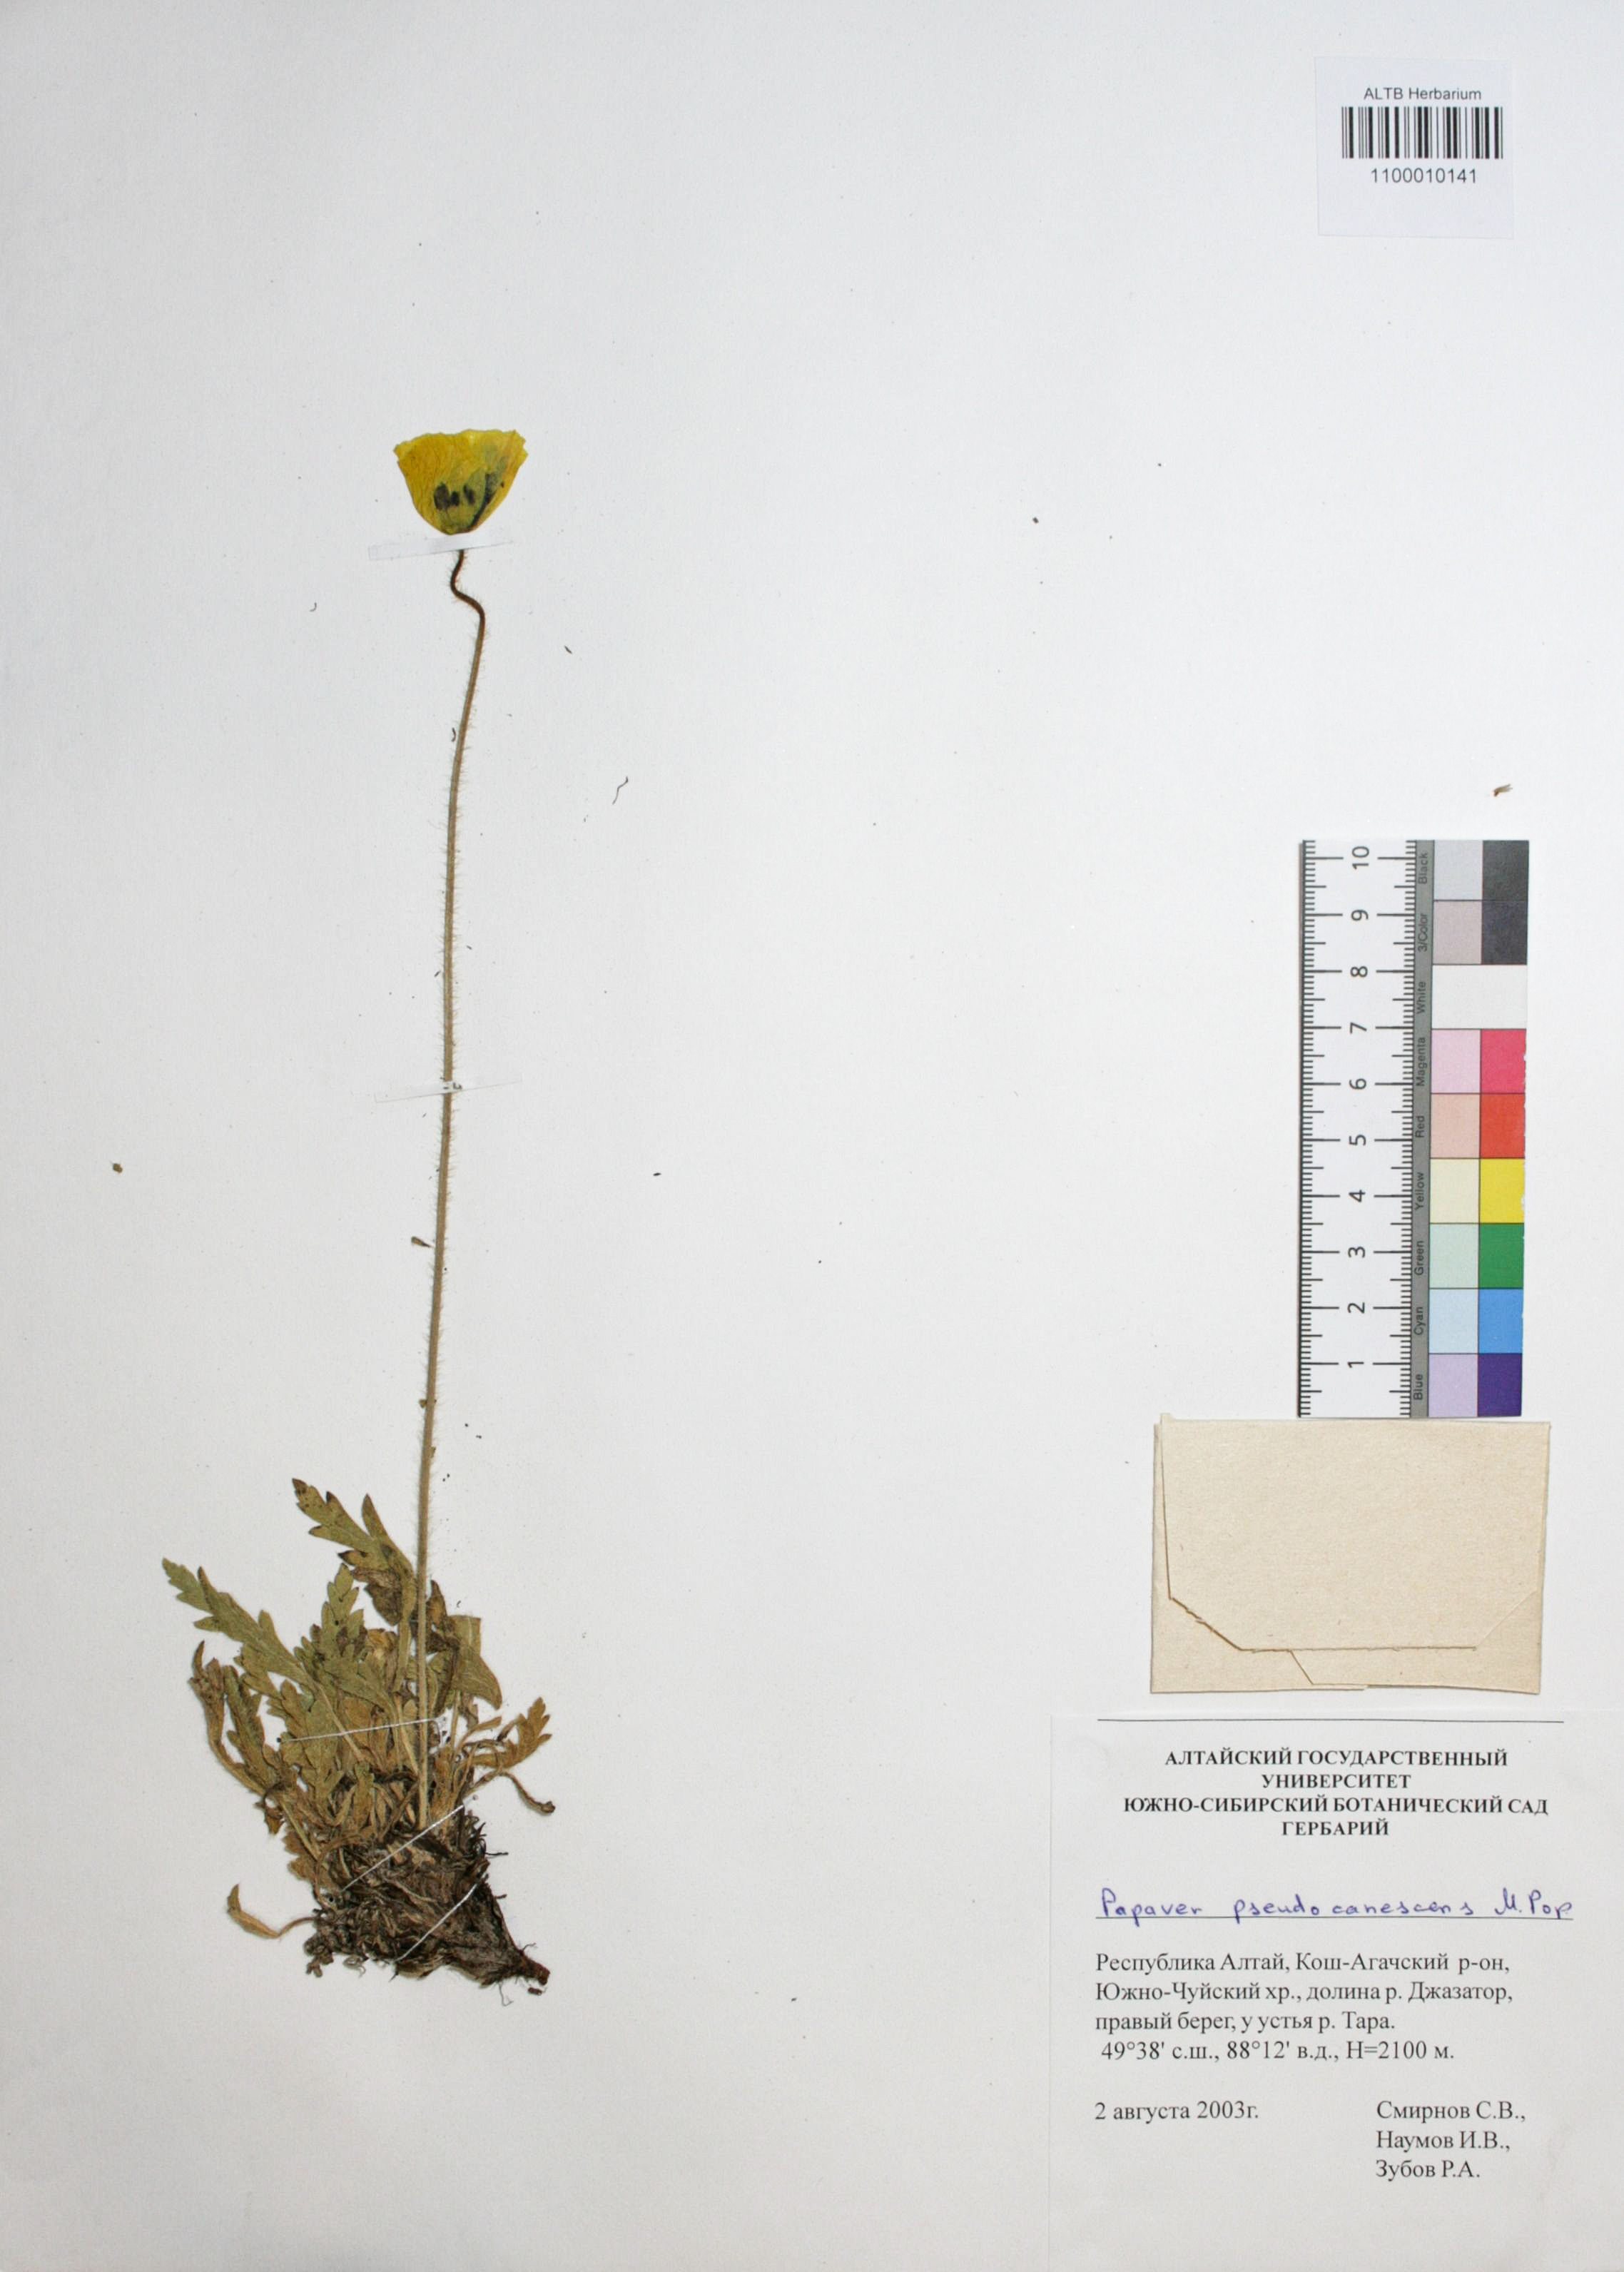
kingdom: Plantae
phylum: Tracheophyta
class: Magnoliopsida
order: Ranunculales
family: Papaveraceae
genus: Papaver
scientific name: Papaver canescens
